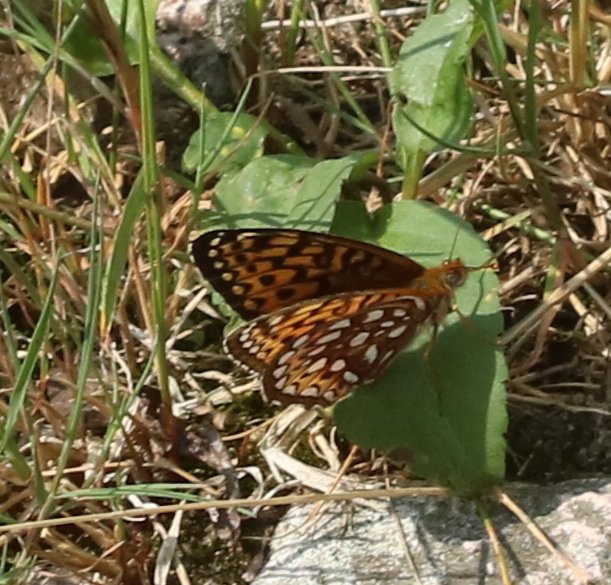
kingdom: Animalia
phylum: Arthropoda
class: Insecta
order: Lepidoptera
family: Nymphalidae
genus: Speyeria
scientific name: Speyeria atlantis
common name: Atlantis Fritillary
